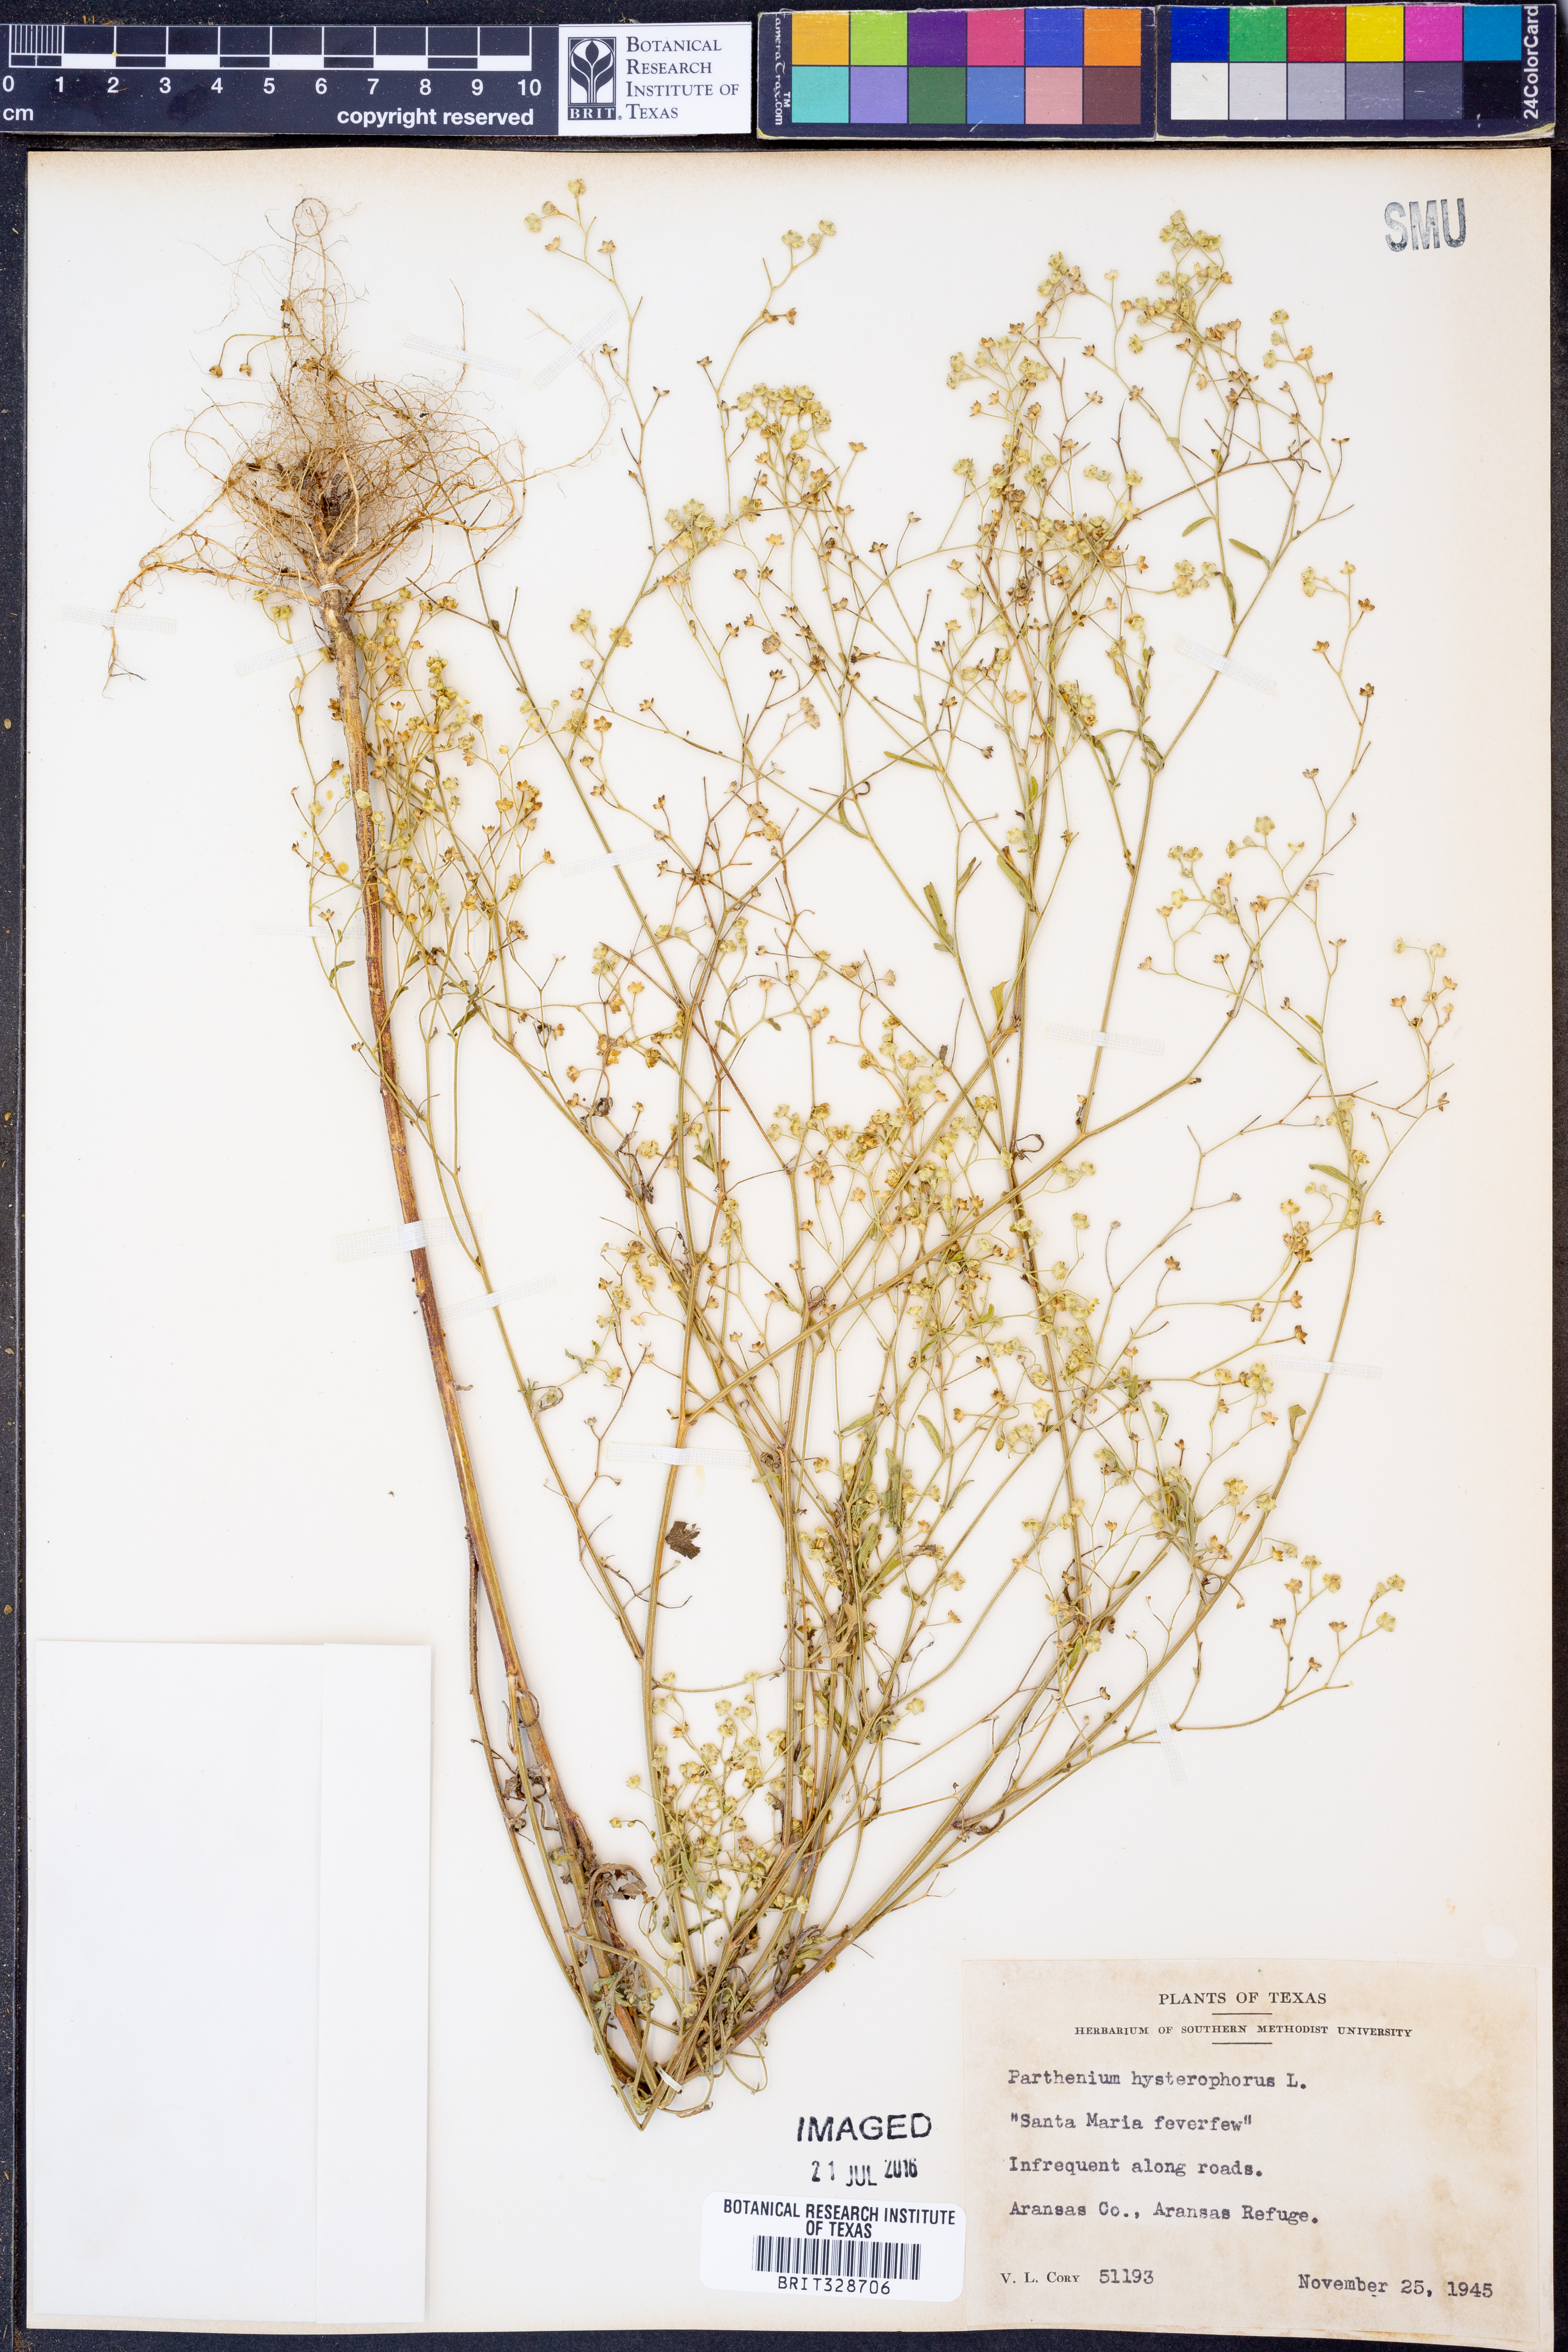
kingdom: Plantae
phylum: Tracheophyta
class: Magnoliopsida
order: Asterales
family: Asteraceae
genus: Parthenium
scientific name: Parthenium hysterophorus
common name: Santa maria feverfew
